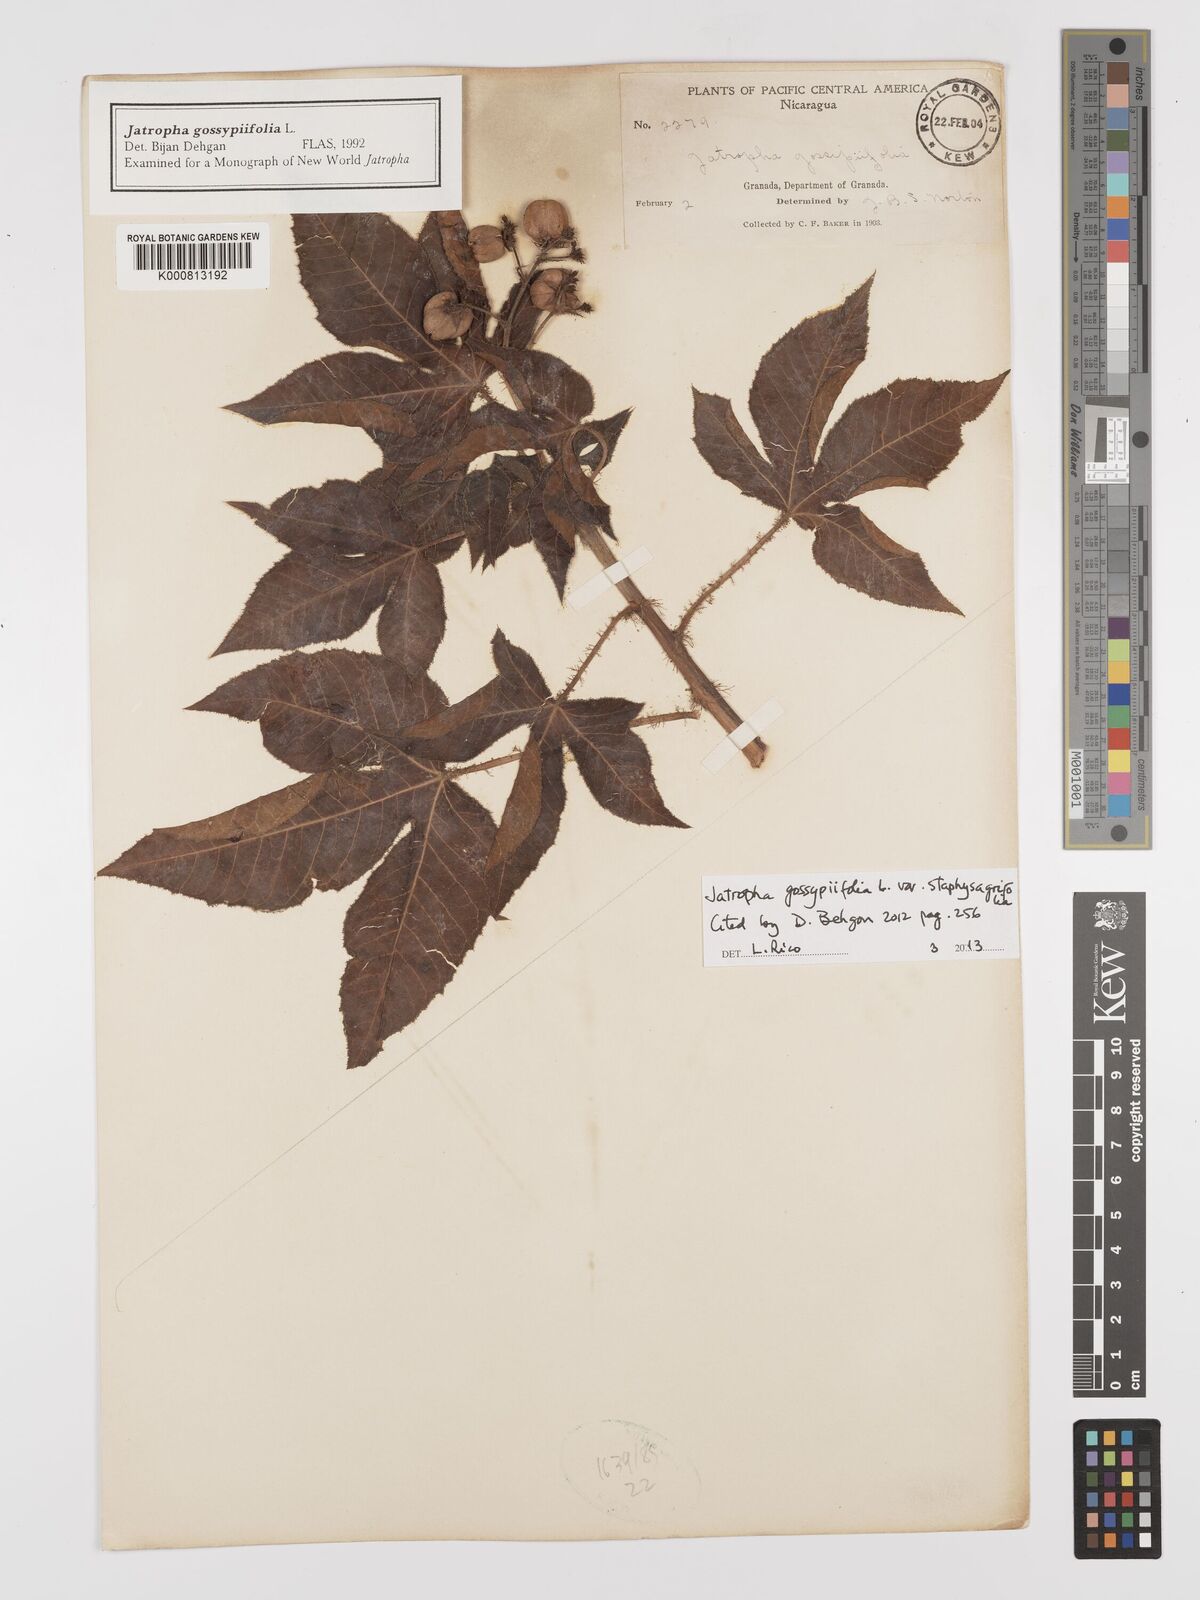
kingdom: Plantae
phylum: Tracheophyta
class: Magnoliopsida
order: Malpighiales
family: Euphorbiaceae
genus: Jatropha
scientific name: Jatropha gossypiifolia
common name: Bellyache bush
